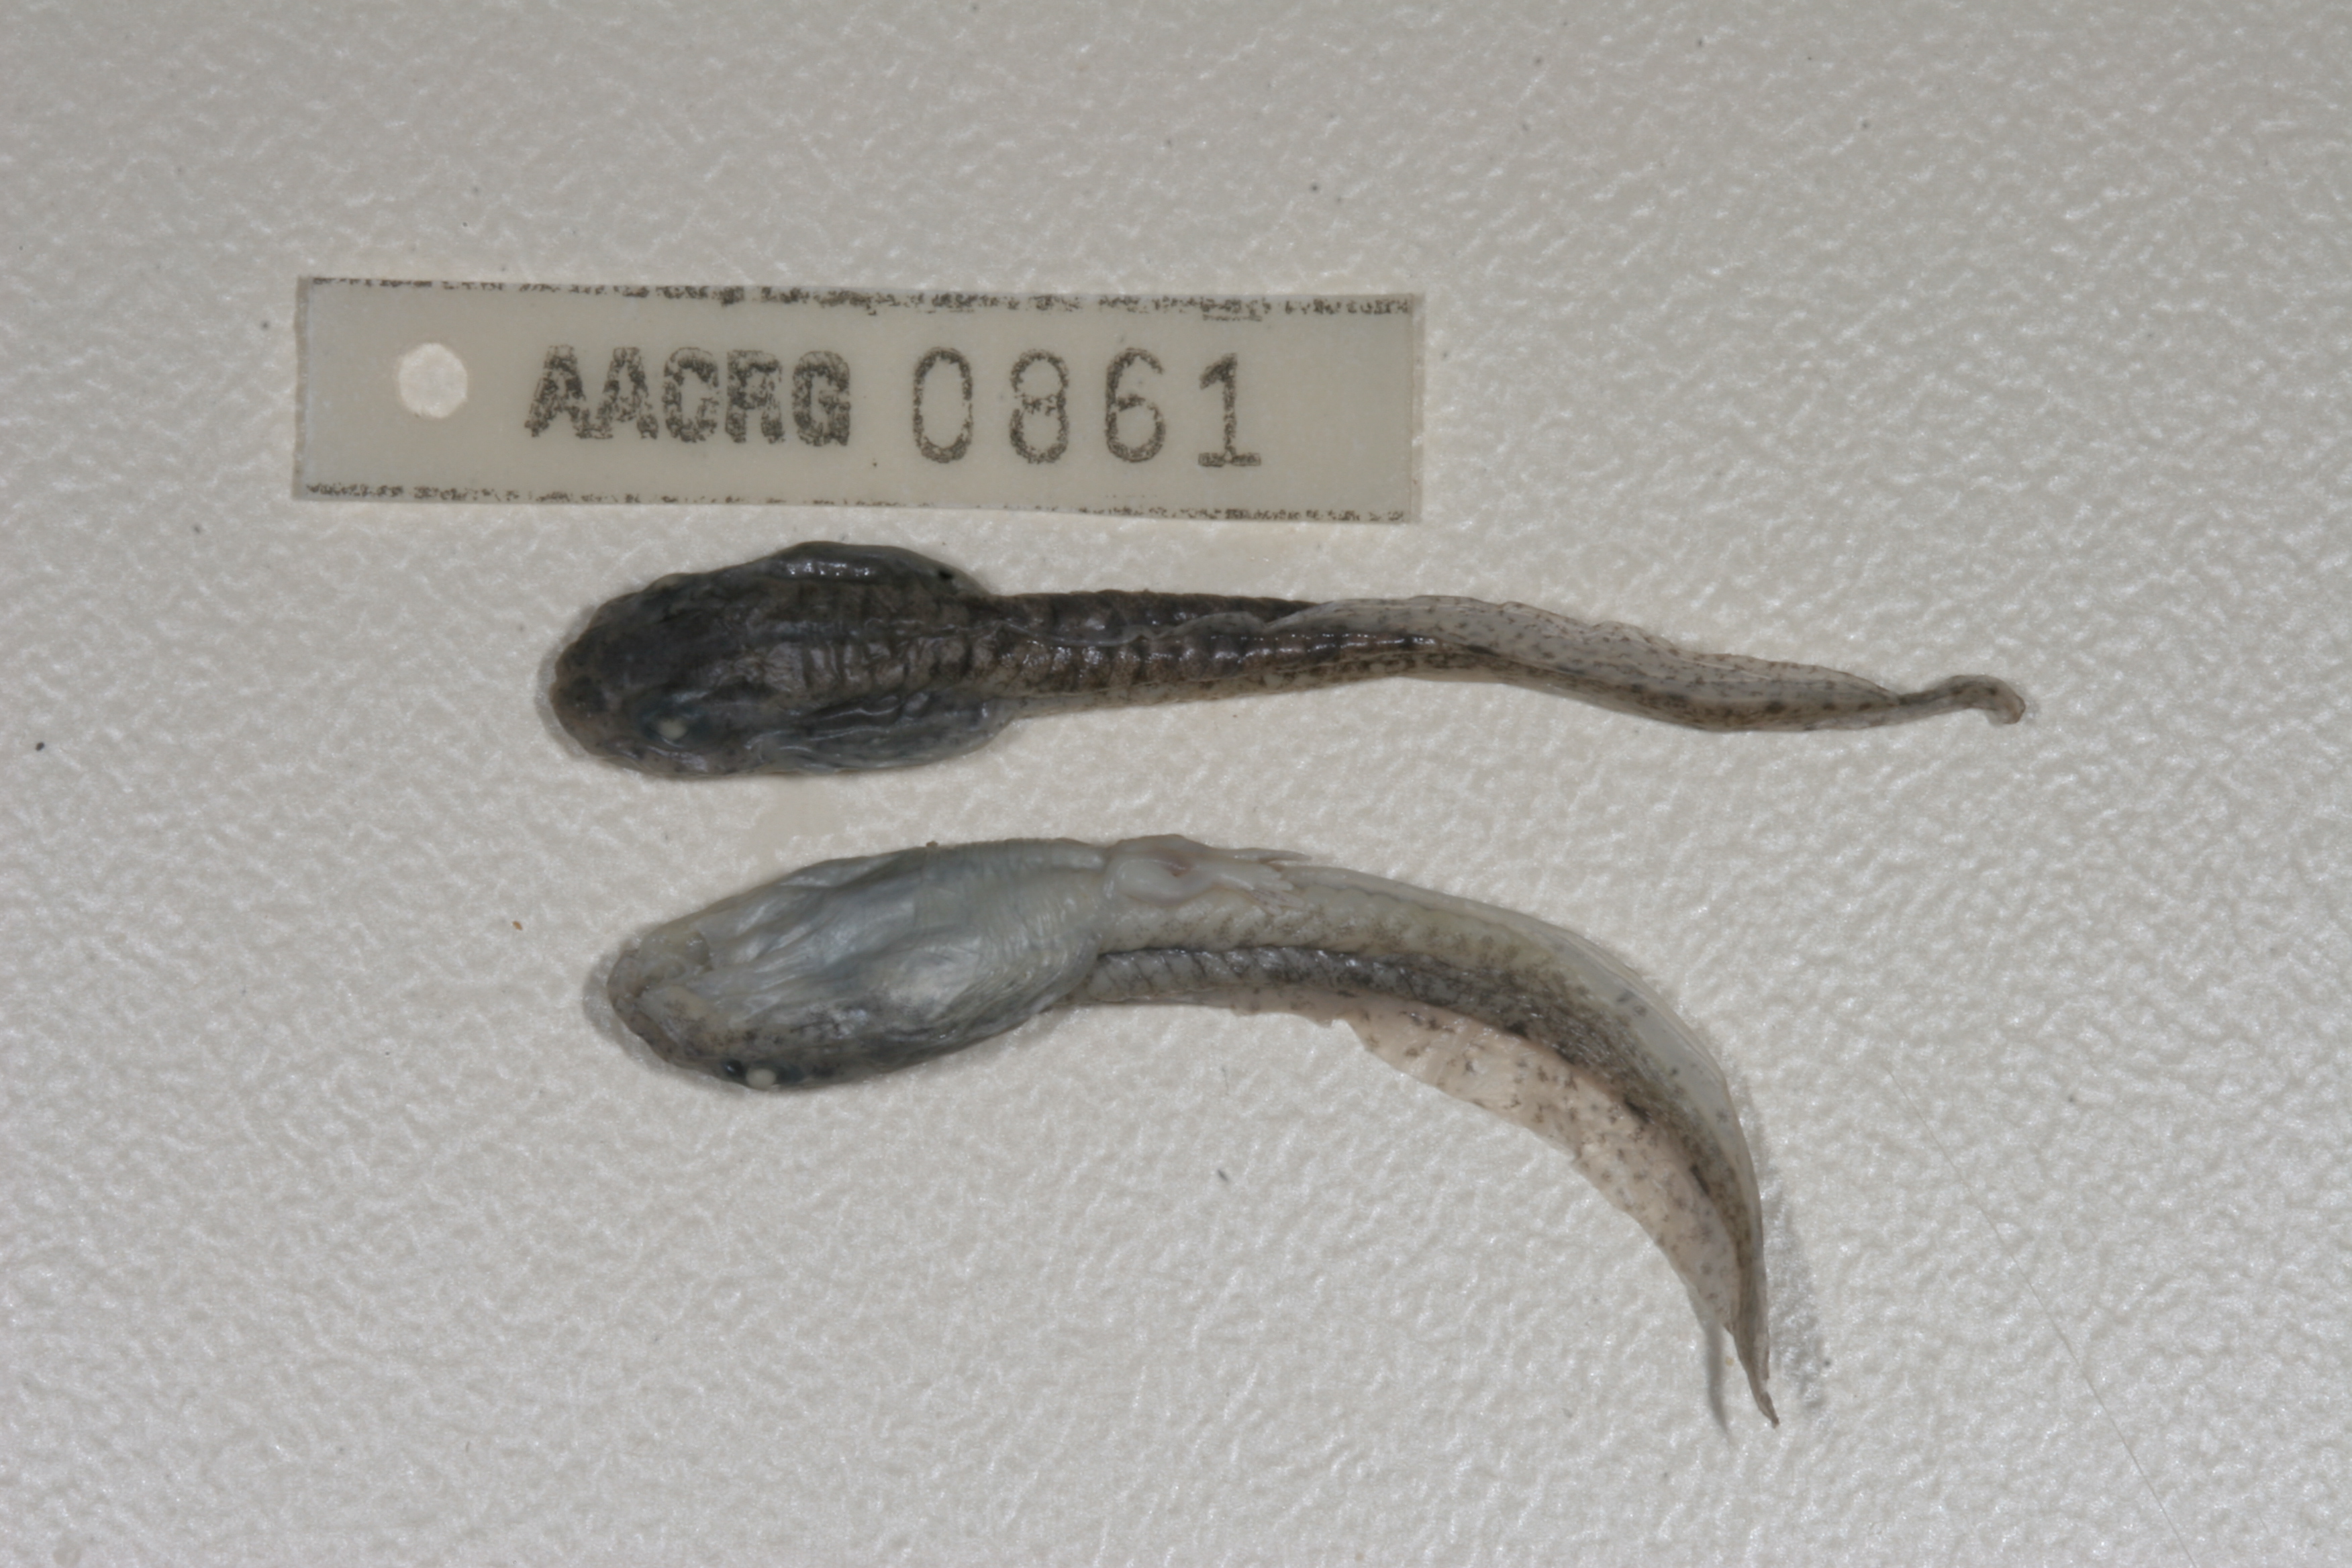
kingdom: Animalia
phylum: Chordata
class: Amphibia
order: Anura
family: Pyxicephalidae
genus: Amietia
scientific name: Amietia angolensis
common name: Dusky-throated frog
